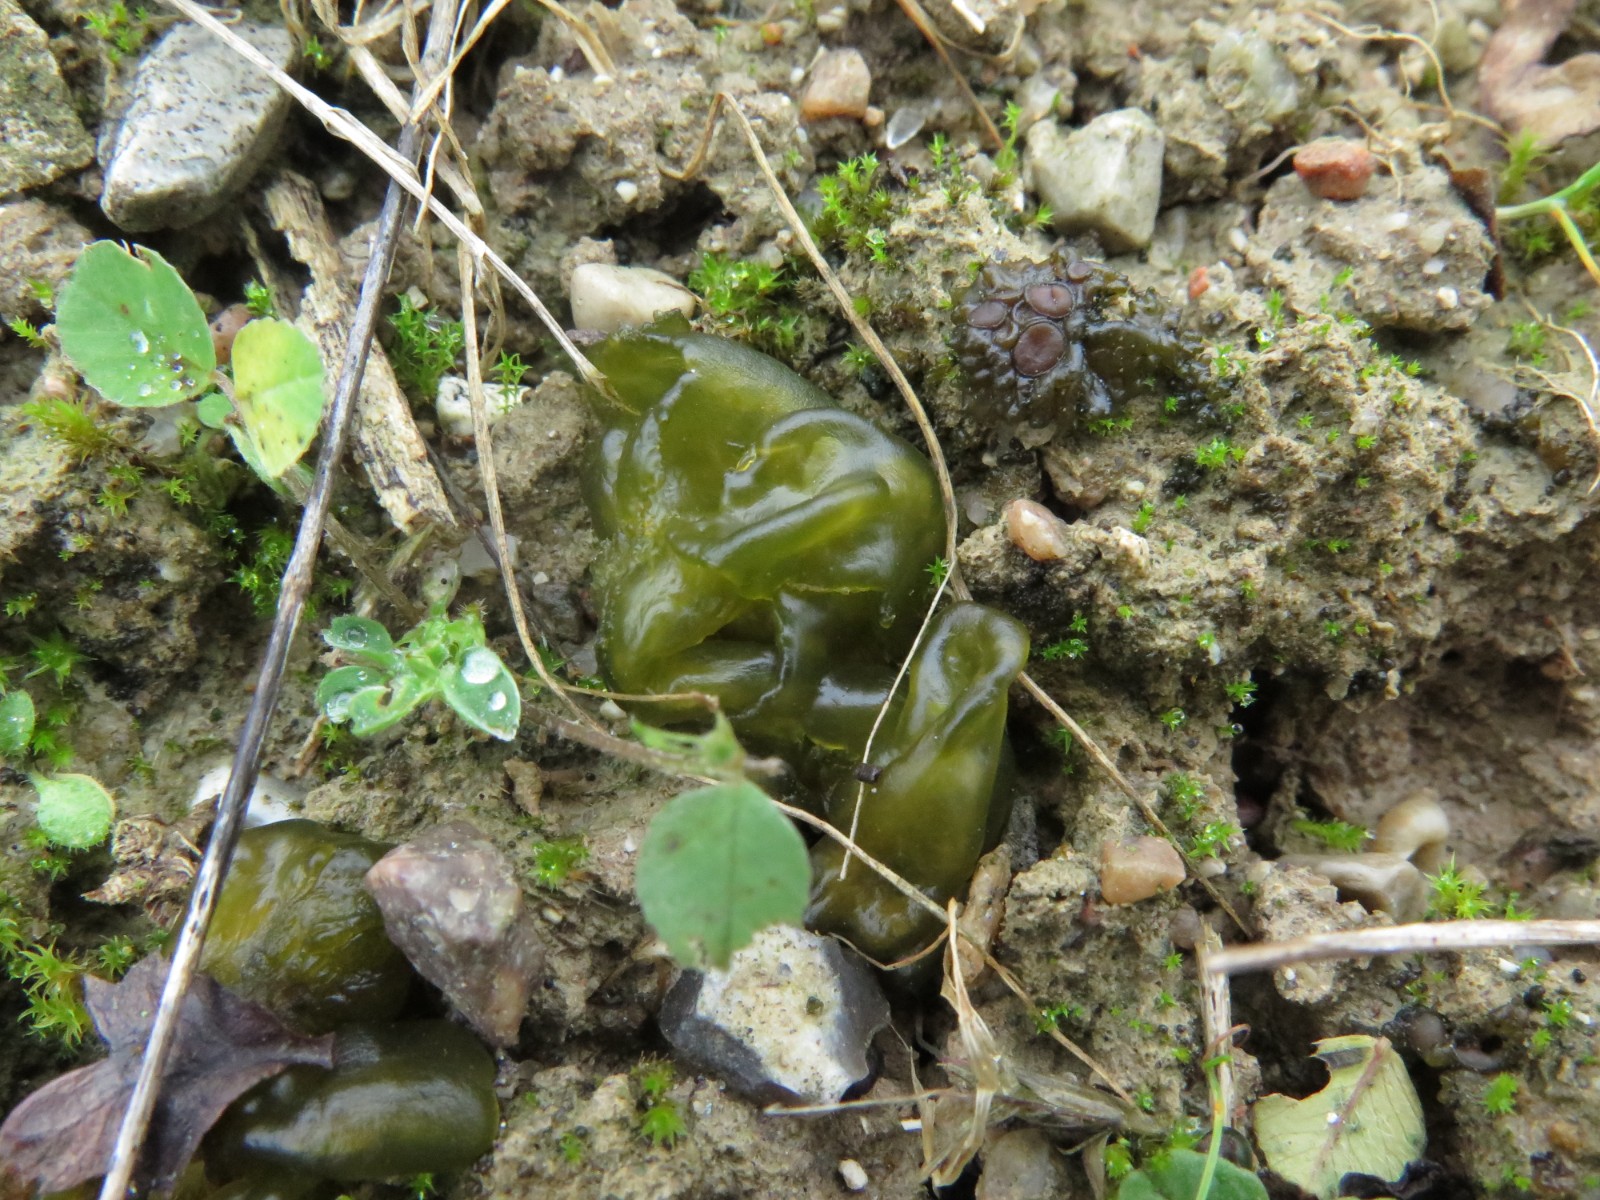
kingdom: Fungi
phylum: Ascomycota
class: Lecanoromycetes
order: Peltigerales
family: Collemataceae
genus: Enchylium
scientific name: Enchylium tenax
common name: tyk bævrelav
